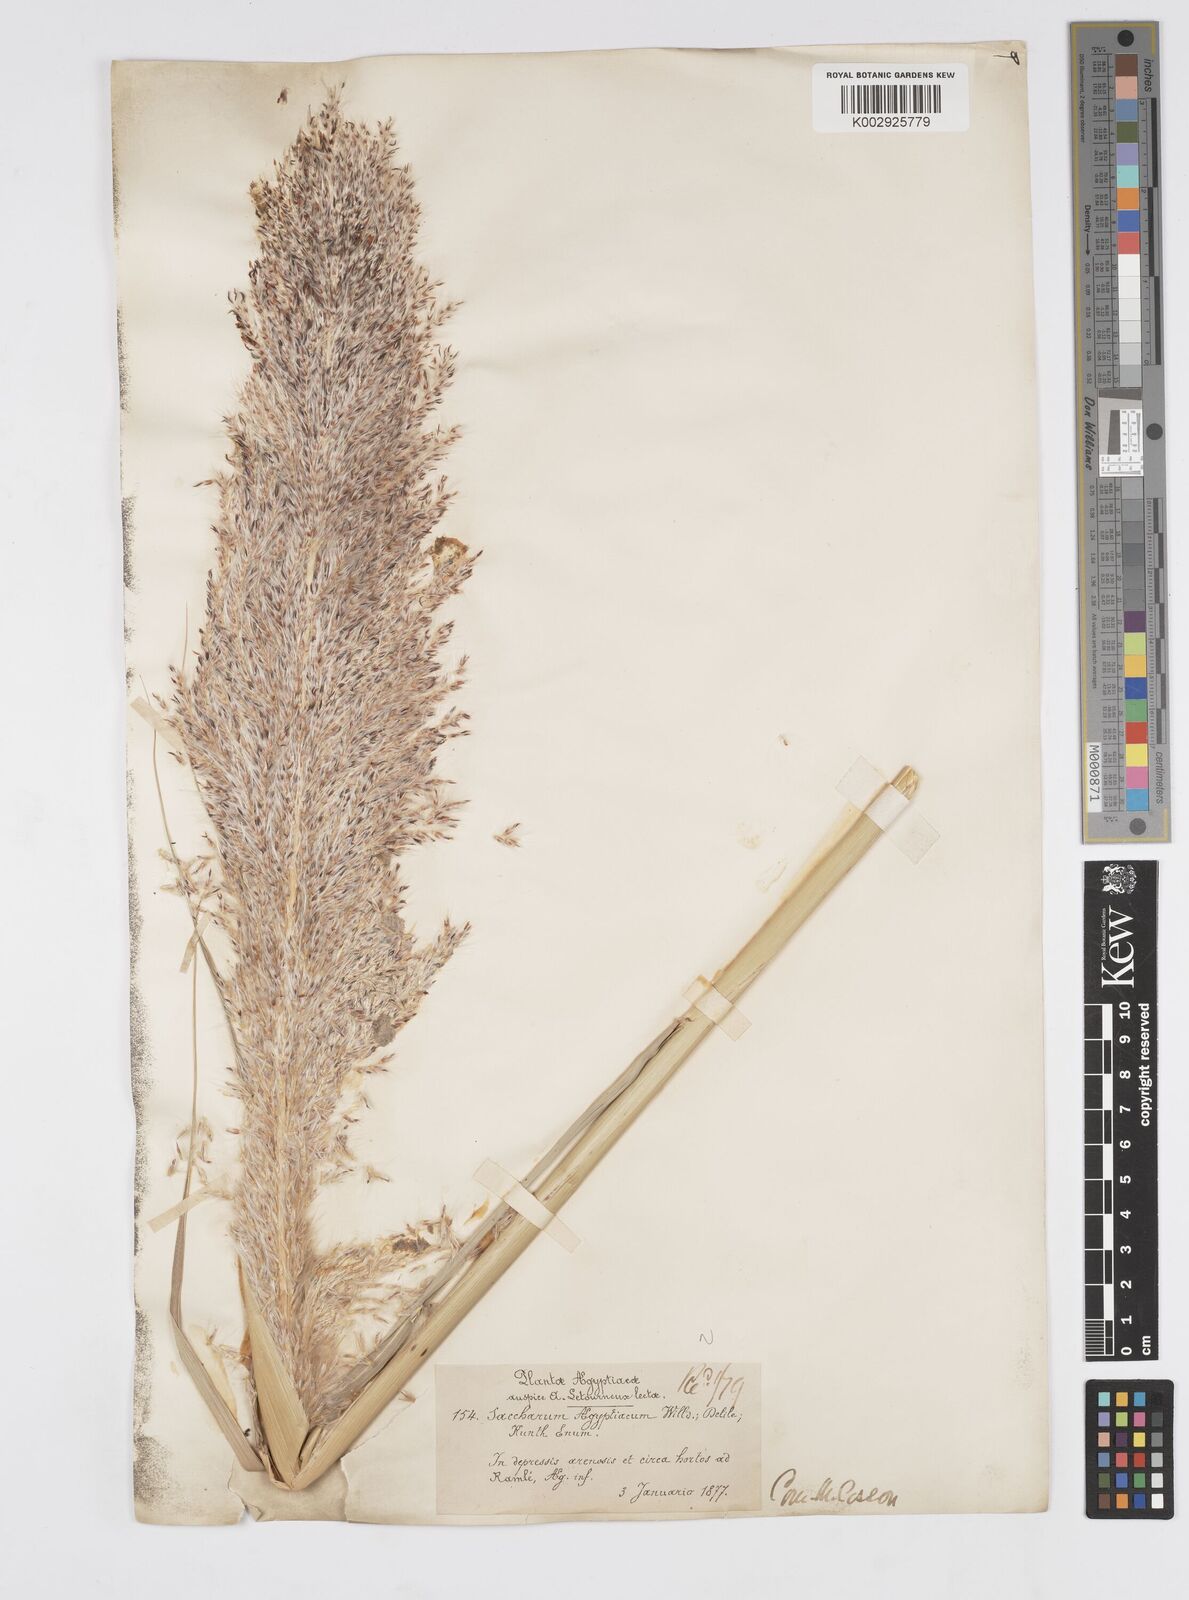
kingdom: Plantae
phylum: Tracheophyta
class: Liliopsida
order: Poales
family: Poaceae
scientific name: Poaceae
